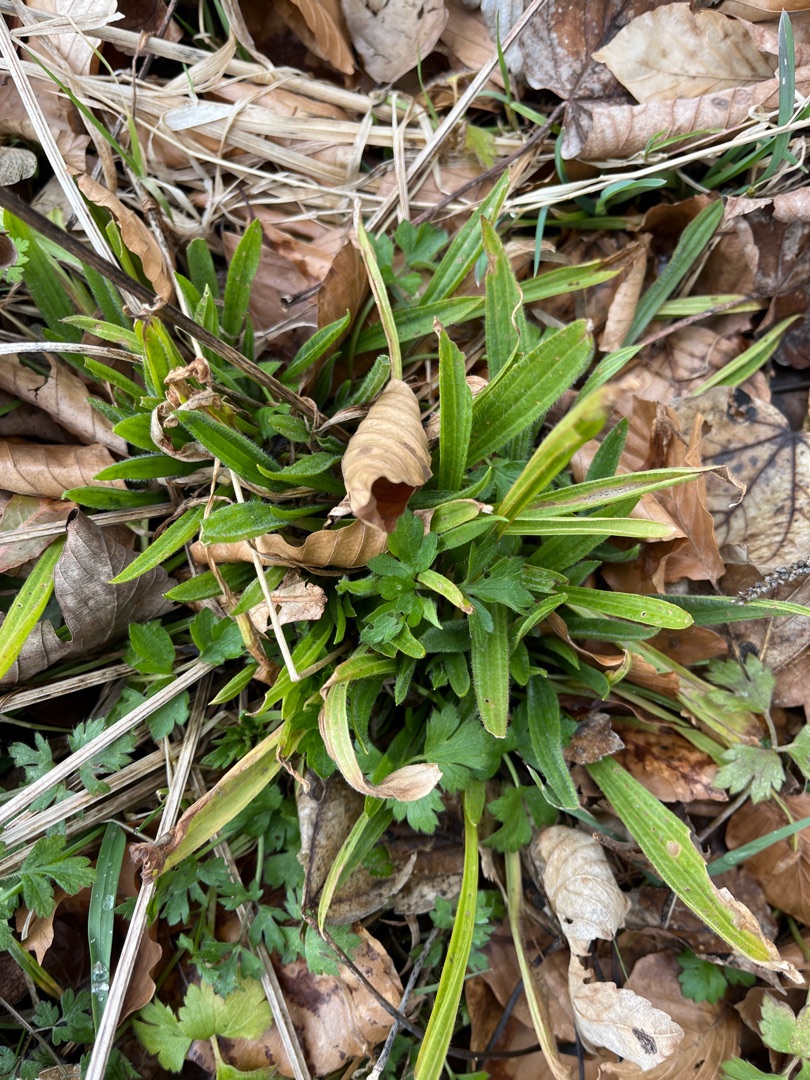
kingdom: Plantae
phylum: Tracheophyta
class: Magnoliopsida
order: Lamiales
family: Plantaginaceae
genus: Plantago
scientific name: Plantago lanceolata
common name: Lancet-vejbred
